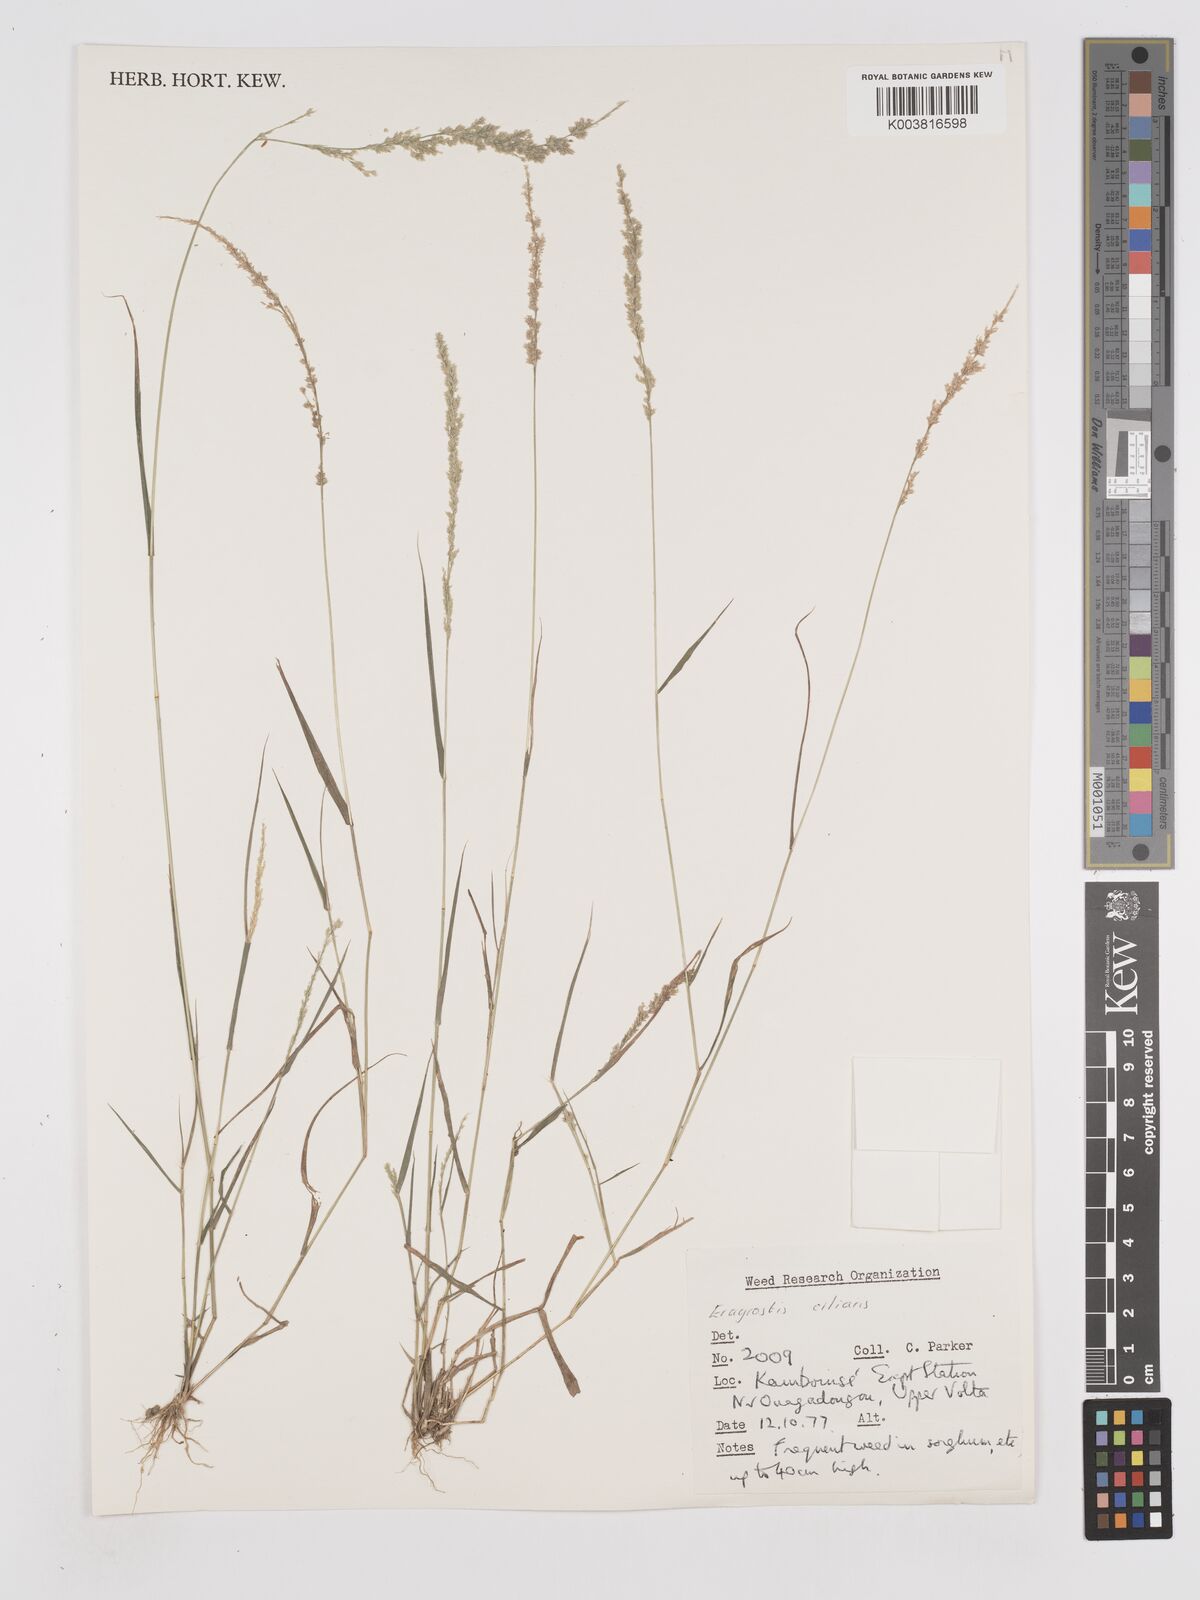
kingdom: Plantae
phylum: Tracheophyta
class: Liliopsida
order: Poales
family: Poaceae
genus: Eragrostis
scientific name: Eragrostis ciliaris
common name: Gophertail lovegrass
